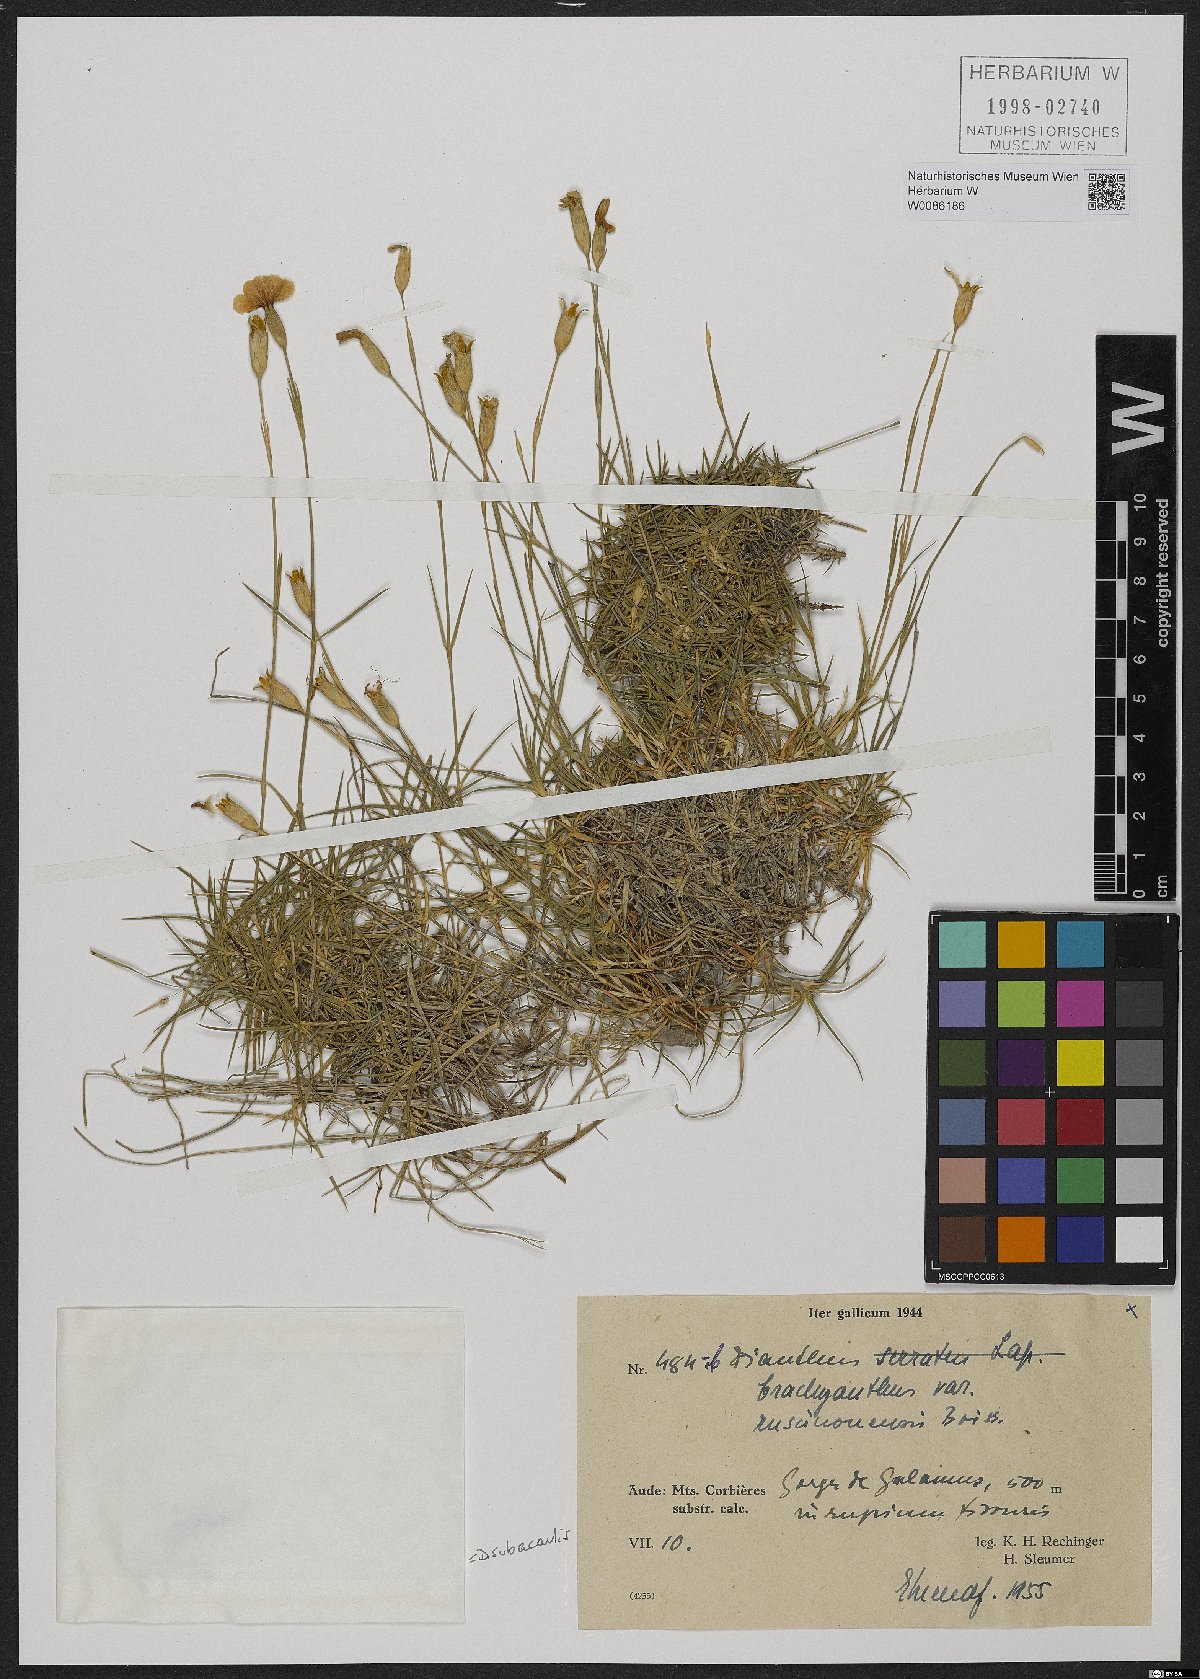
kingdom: Plantae
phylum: Tracheophyta
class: Magnoliopsida
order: Caryophyllales
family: Caryophyllaceae
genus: Dianthus
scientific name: Dianthus pungens
